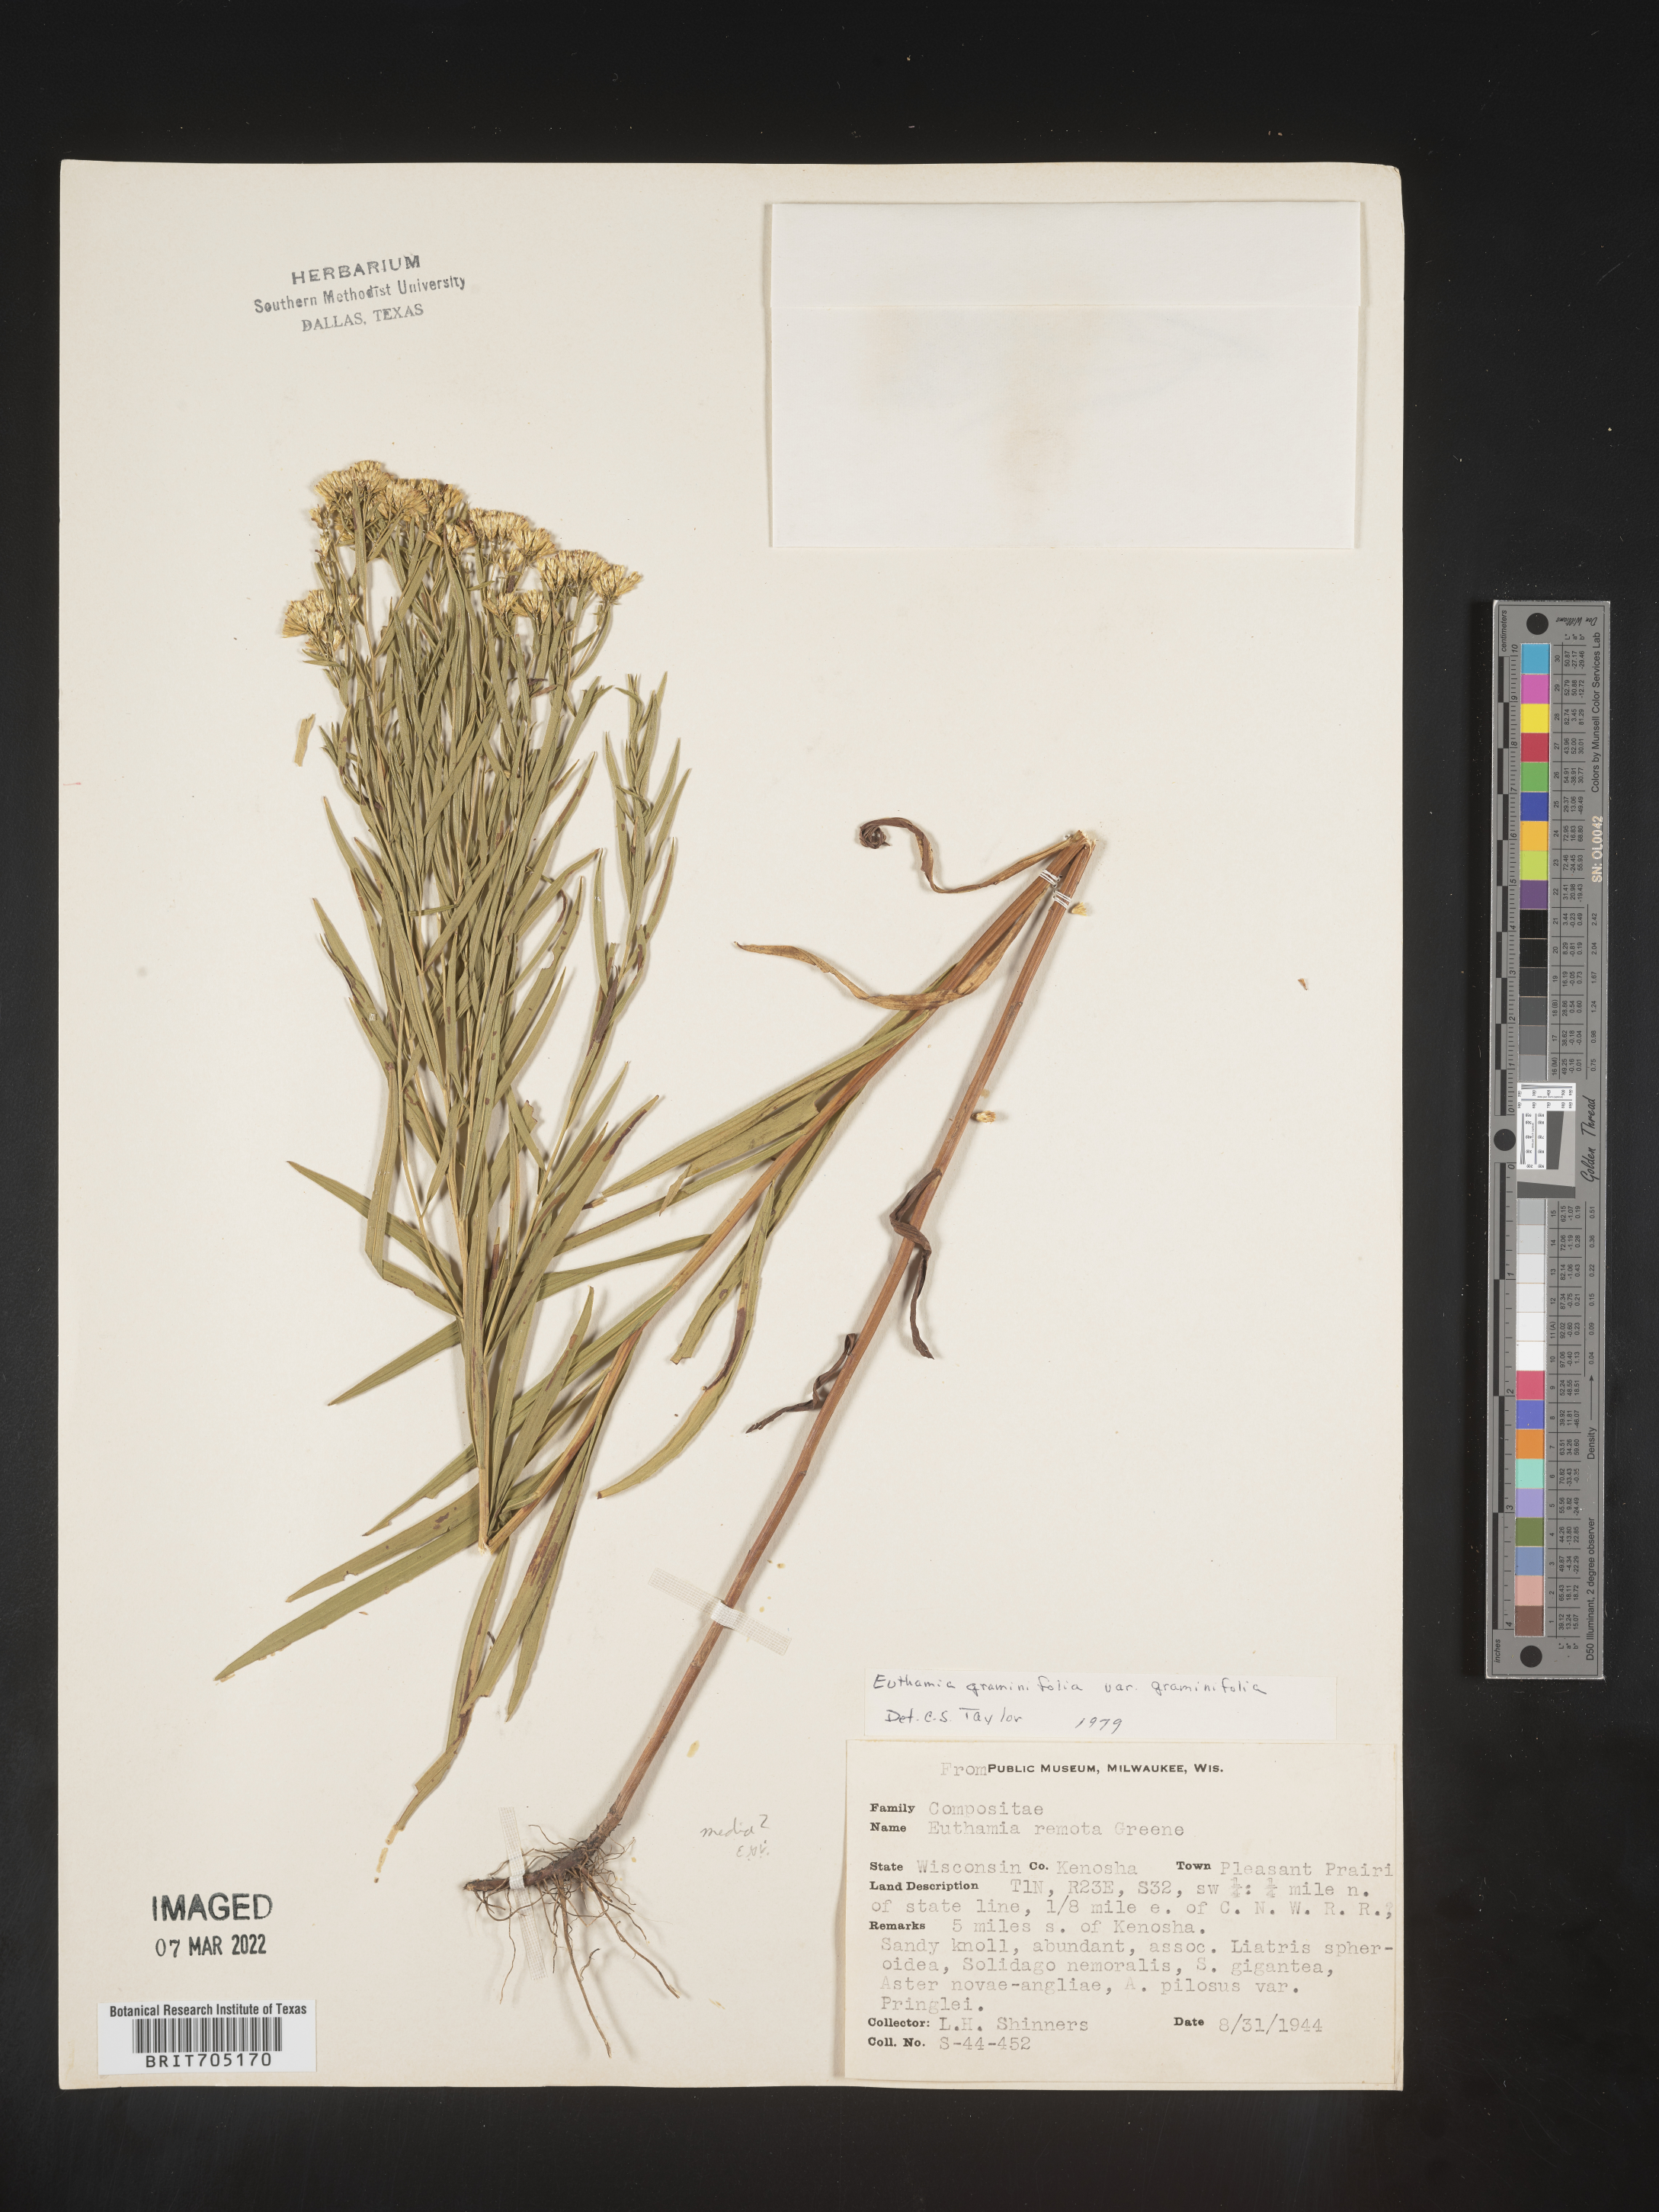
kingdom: Plantae
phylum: Tracheophyta
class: Magnoliopsida
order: Asterales
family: Asteraceae
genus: Euthamia
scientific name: Euthamia graminifolia
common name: Common goldentop
